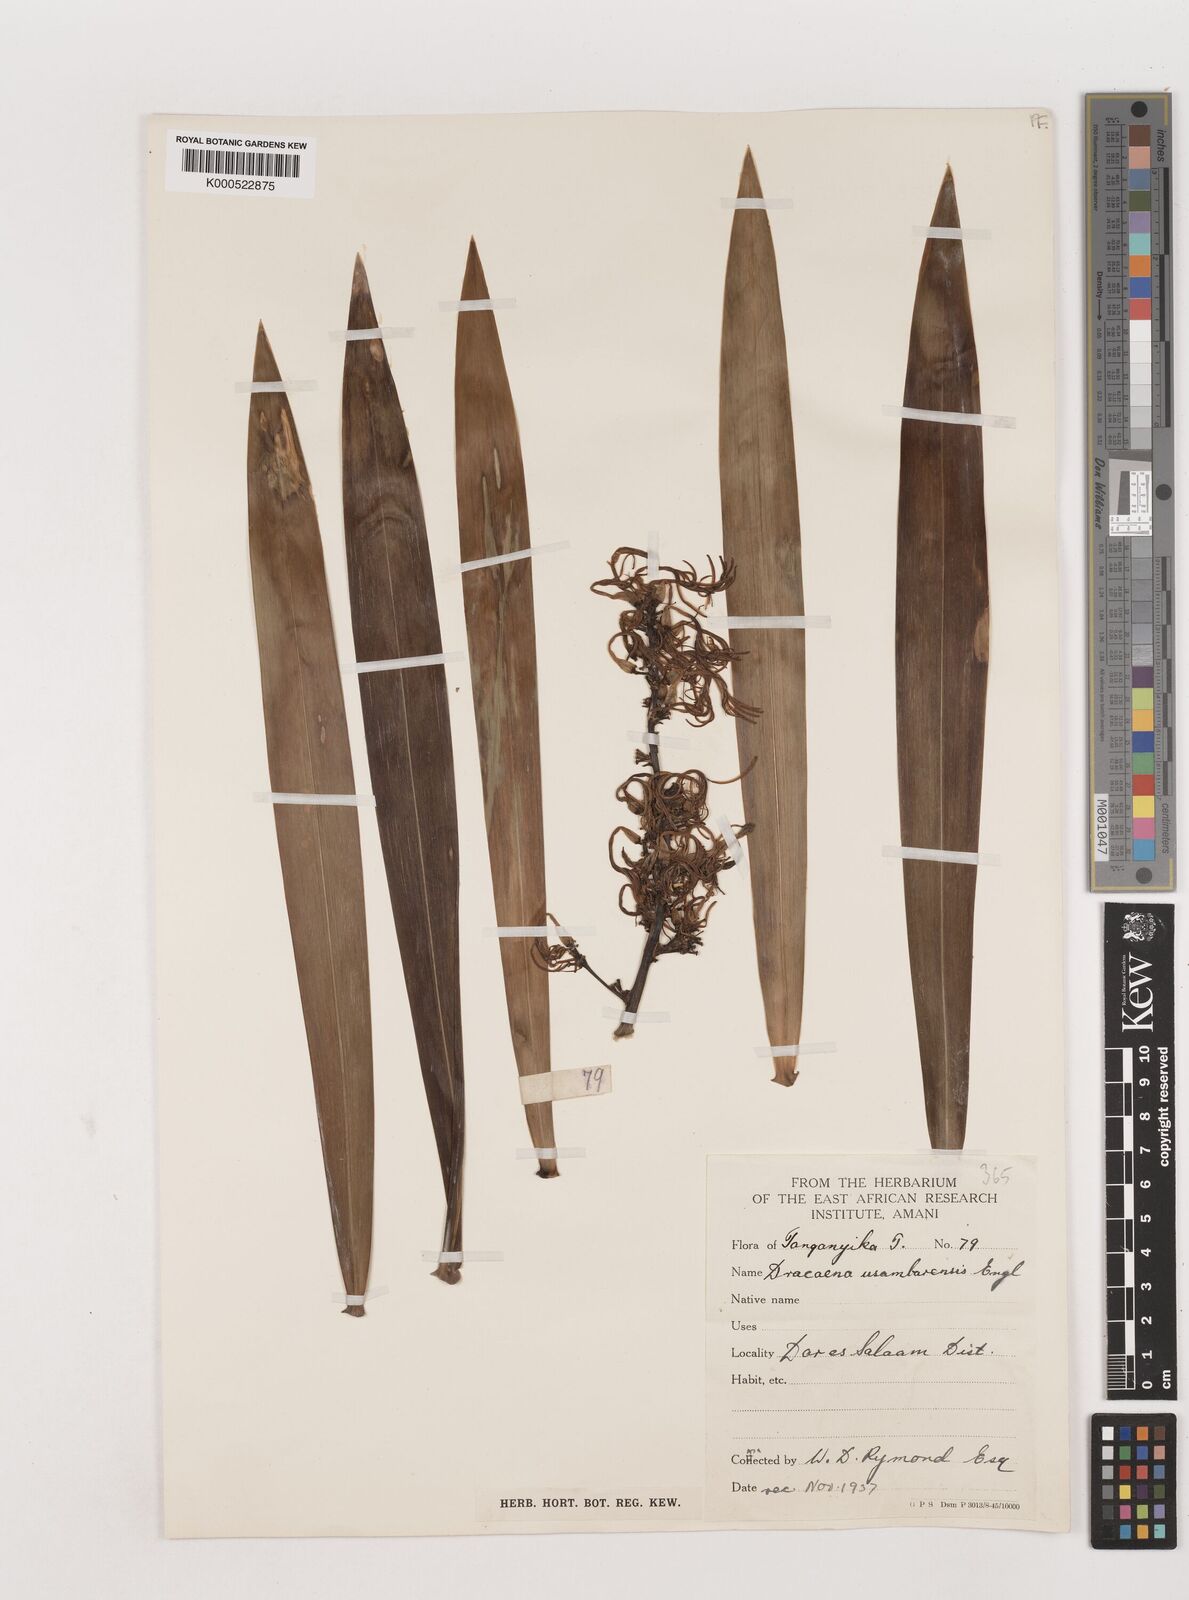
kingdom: Plantae
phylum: Tracheophyta
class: Liliopsida
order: Asparagales
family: Asparagaceae
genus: Dracaena
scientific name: Dracaena usambarensis
